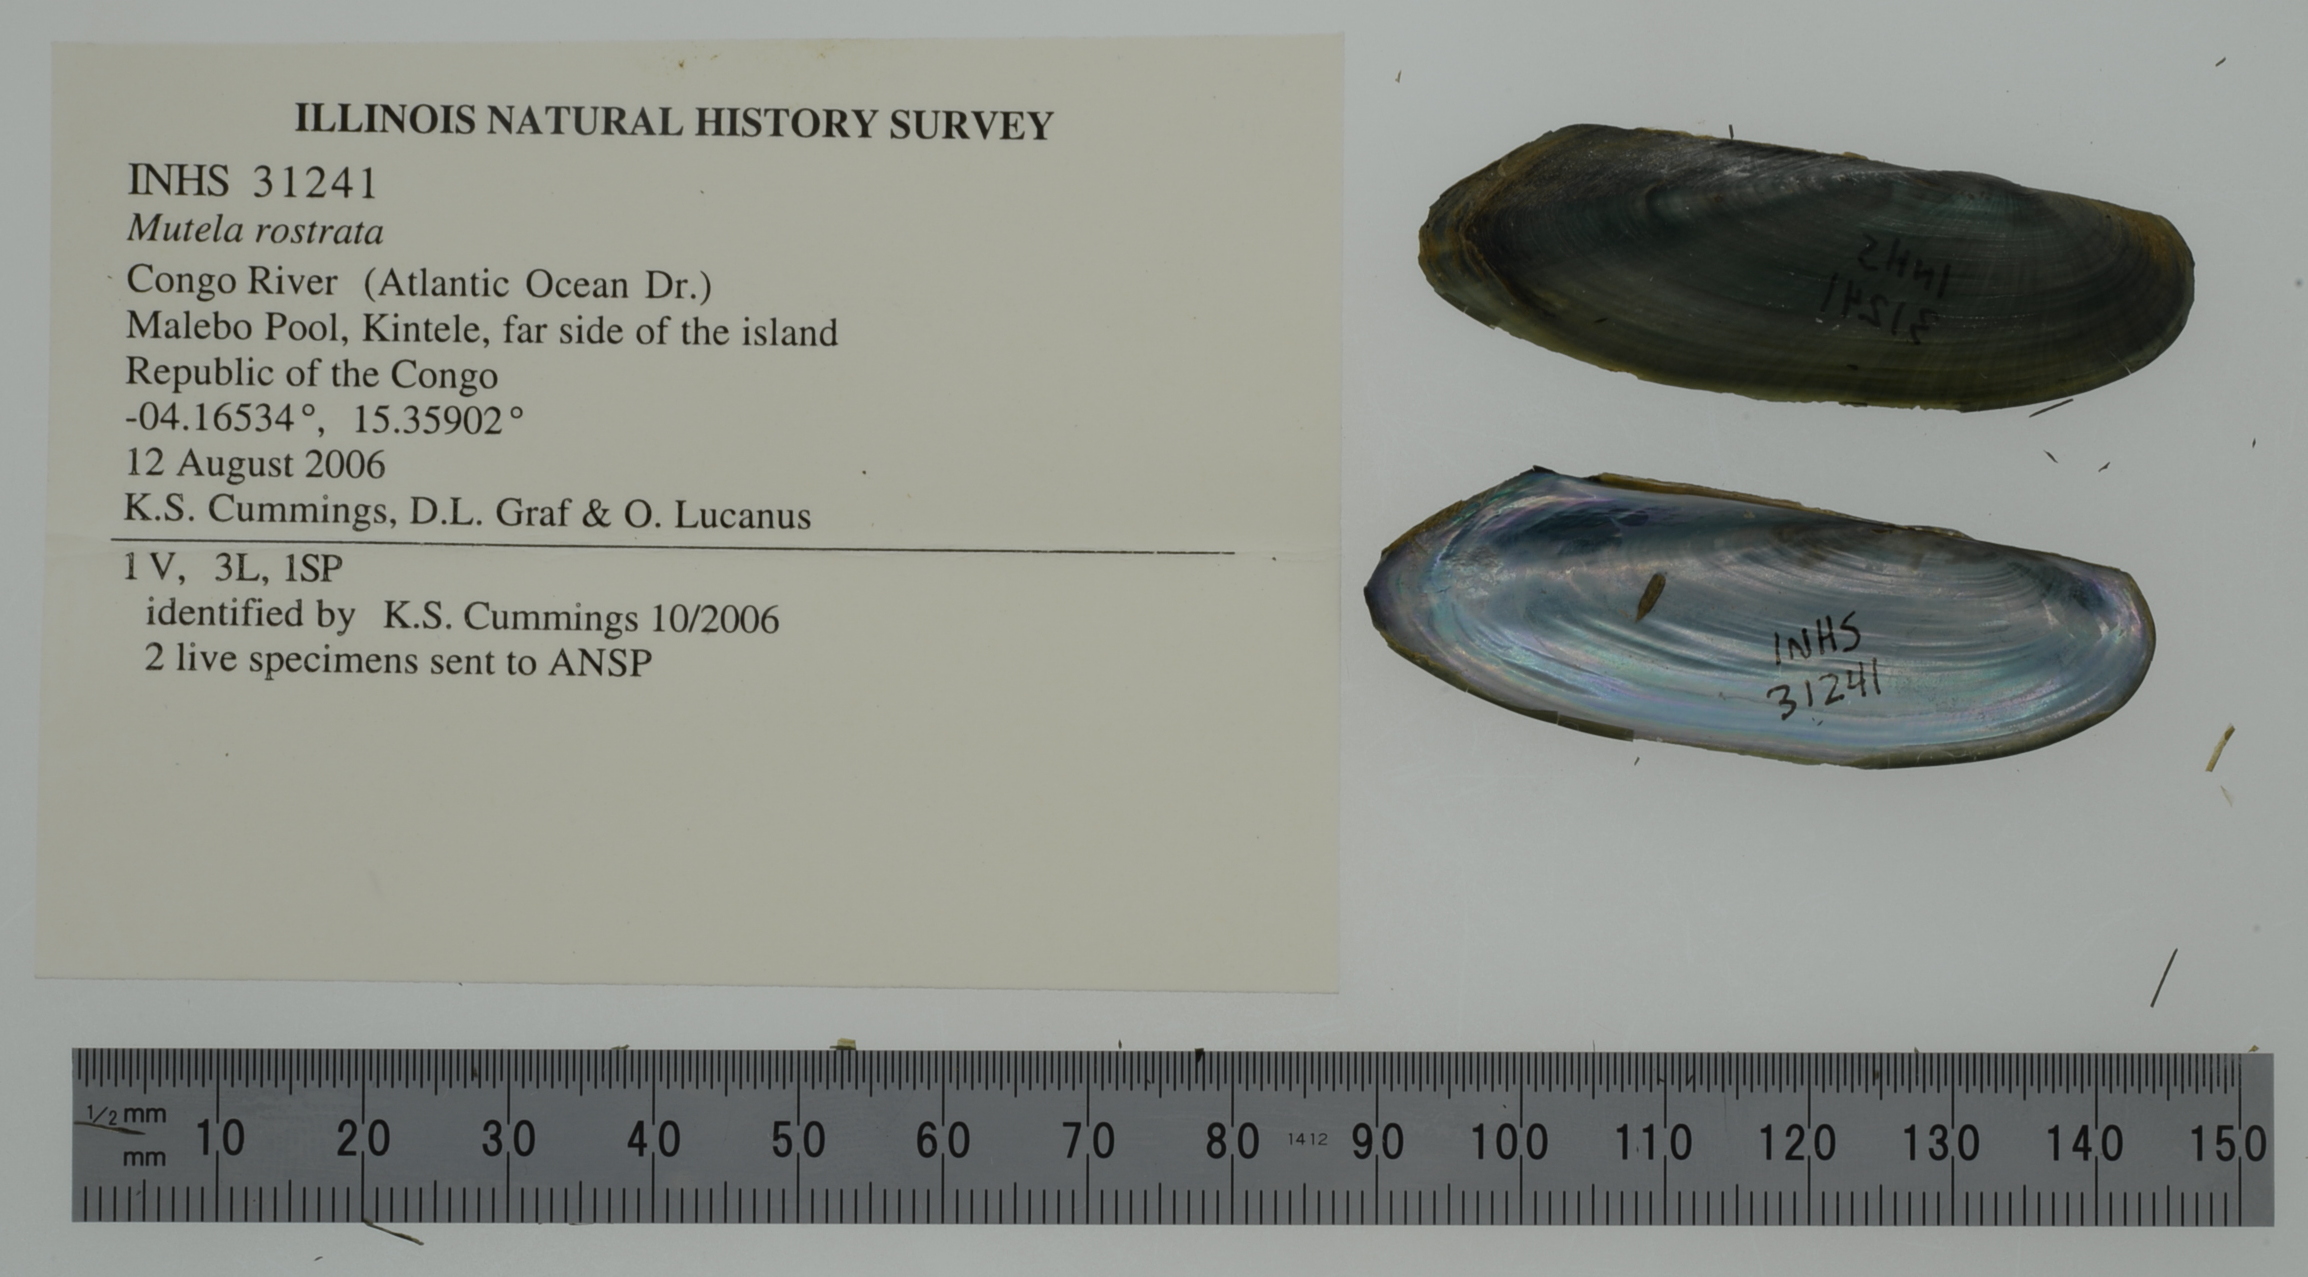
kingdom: Animalia
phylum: Mollusca
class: Bivalvia
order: Unionida
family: Iridinidae
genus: Mutela
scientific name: Mutela rostrata
